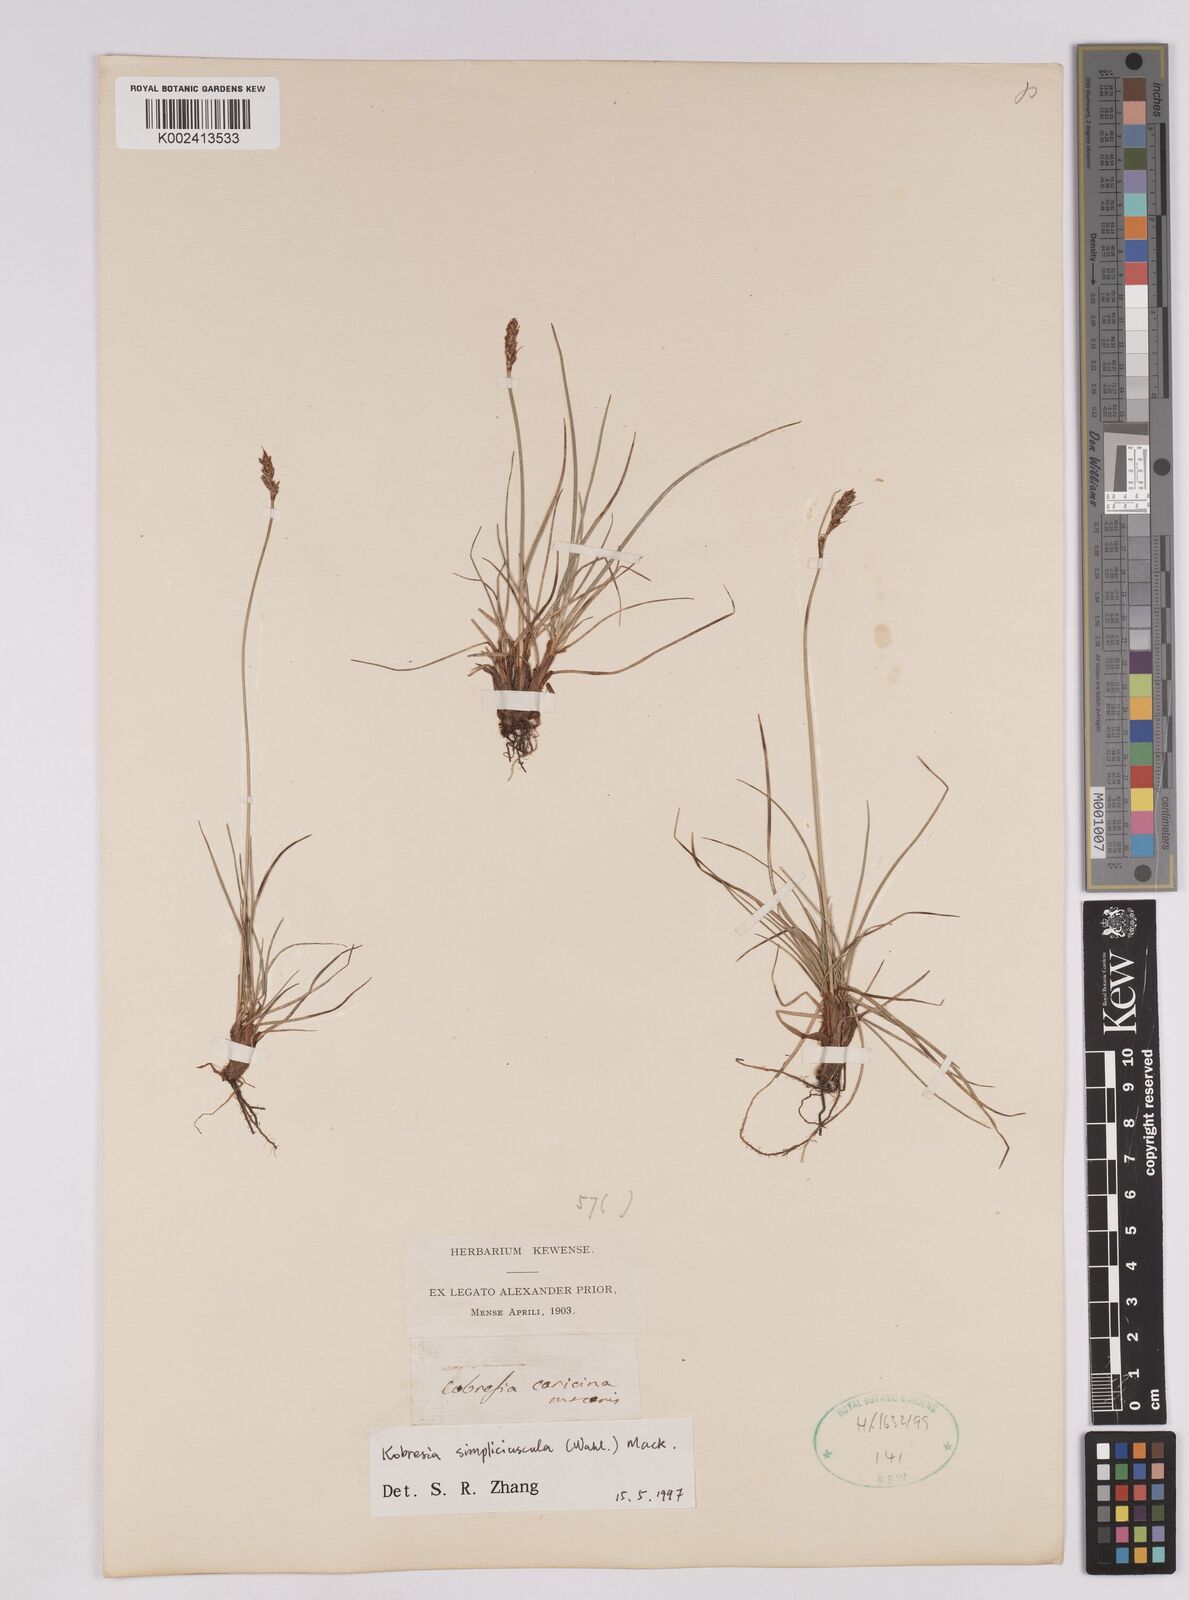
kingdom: Plantae
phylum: Tracheophyta
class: Liliopsida
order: Poales
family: Cyperaceae
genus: Carex
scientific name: Carex simpliciuscula
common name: Simple bog sedge
